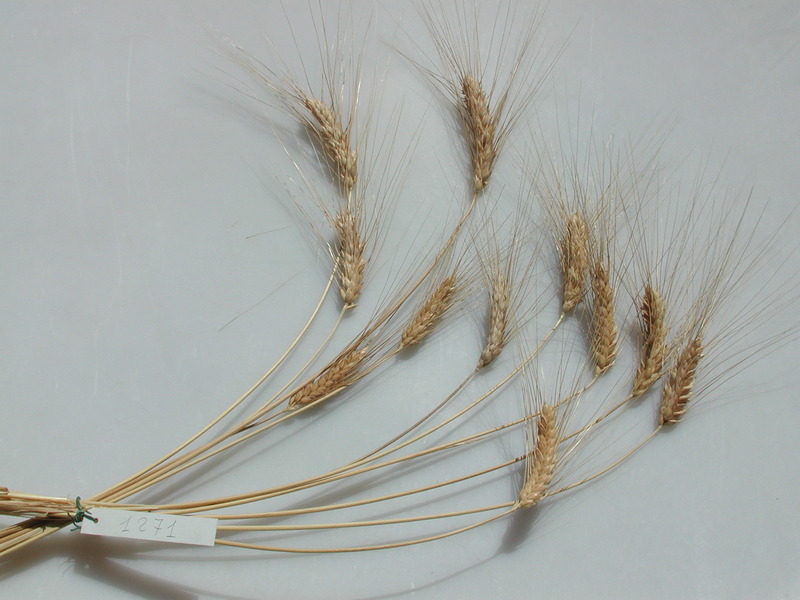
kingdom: Plantae
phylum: Tracheophyta
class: Liliopsida
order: Poales
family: Poaceae
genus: Triticum
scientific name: Triticum turgidum
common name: Wheat
